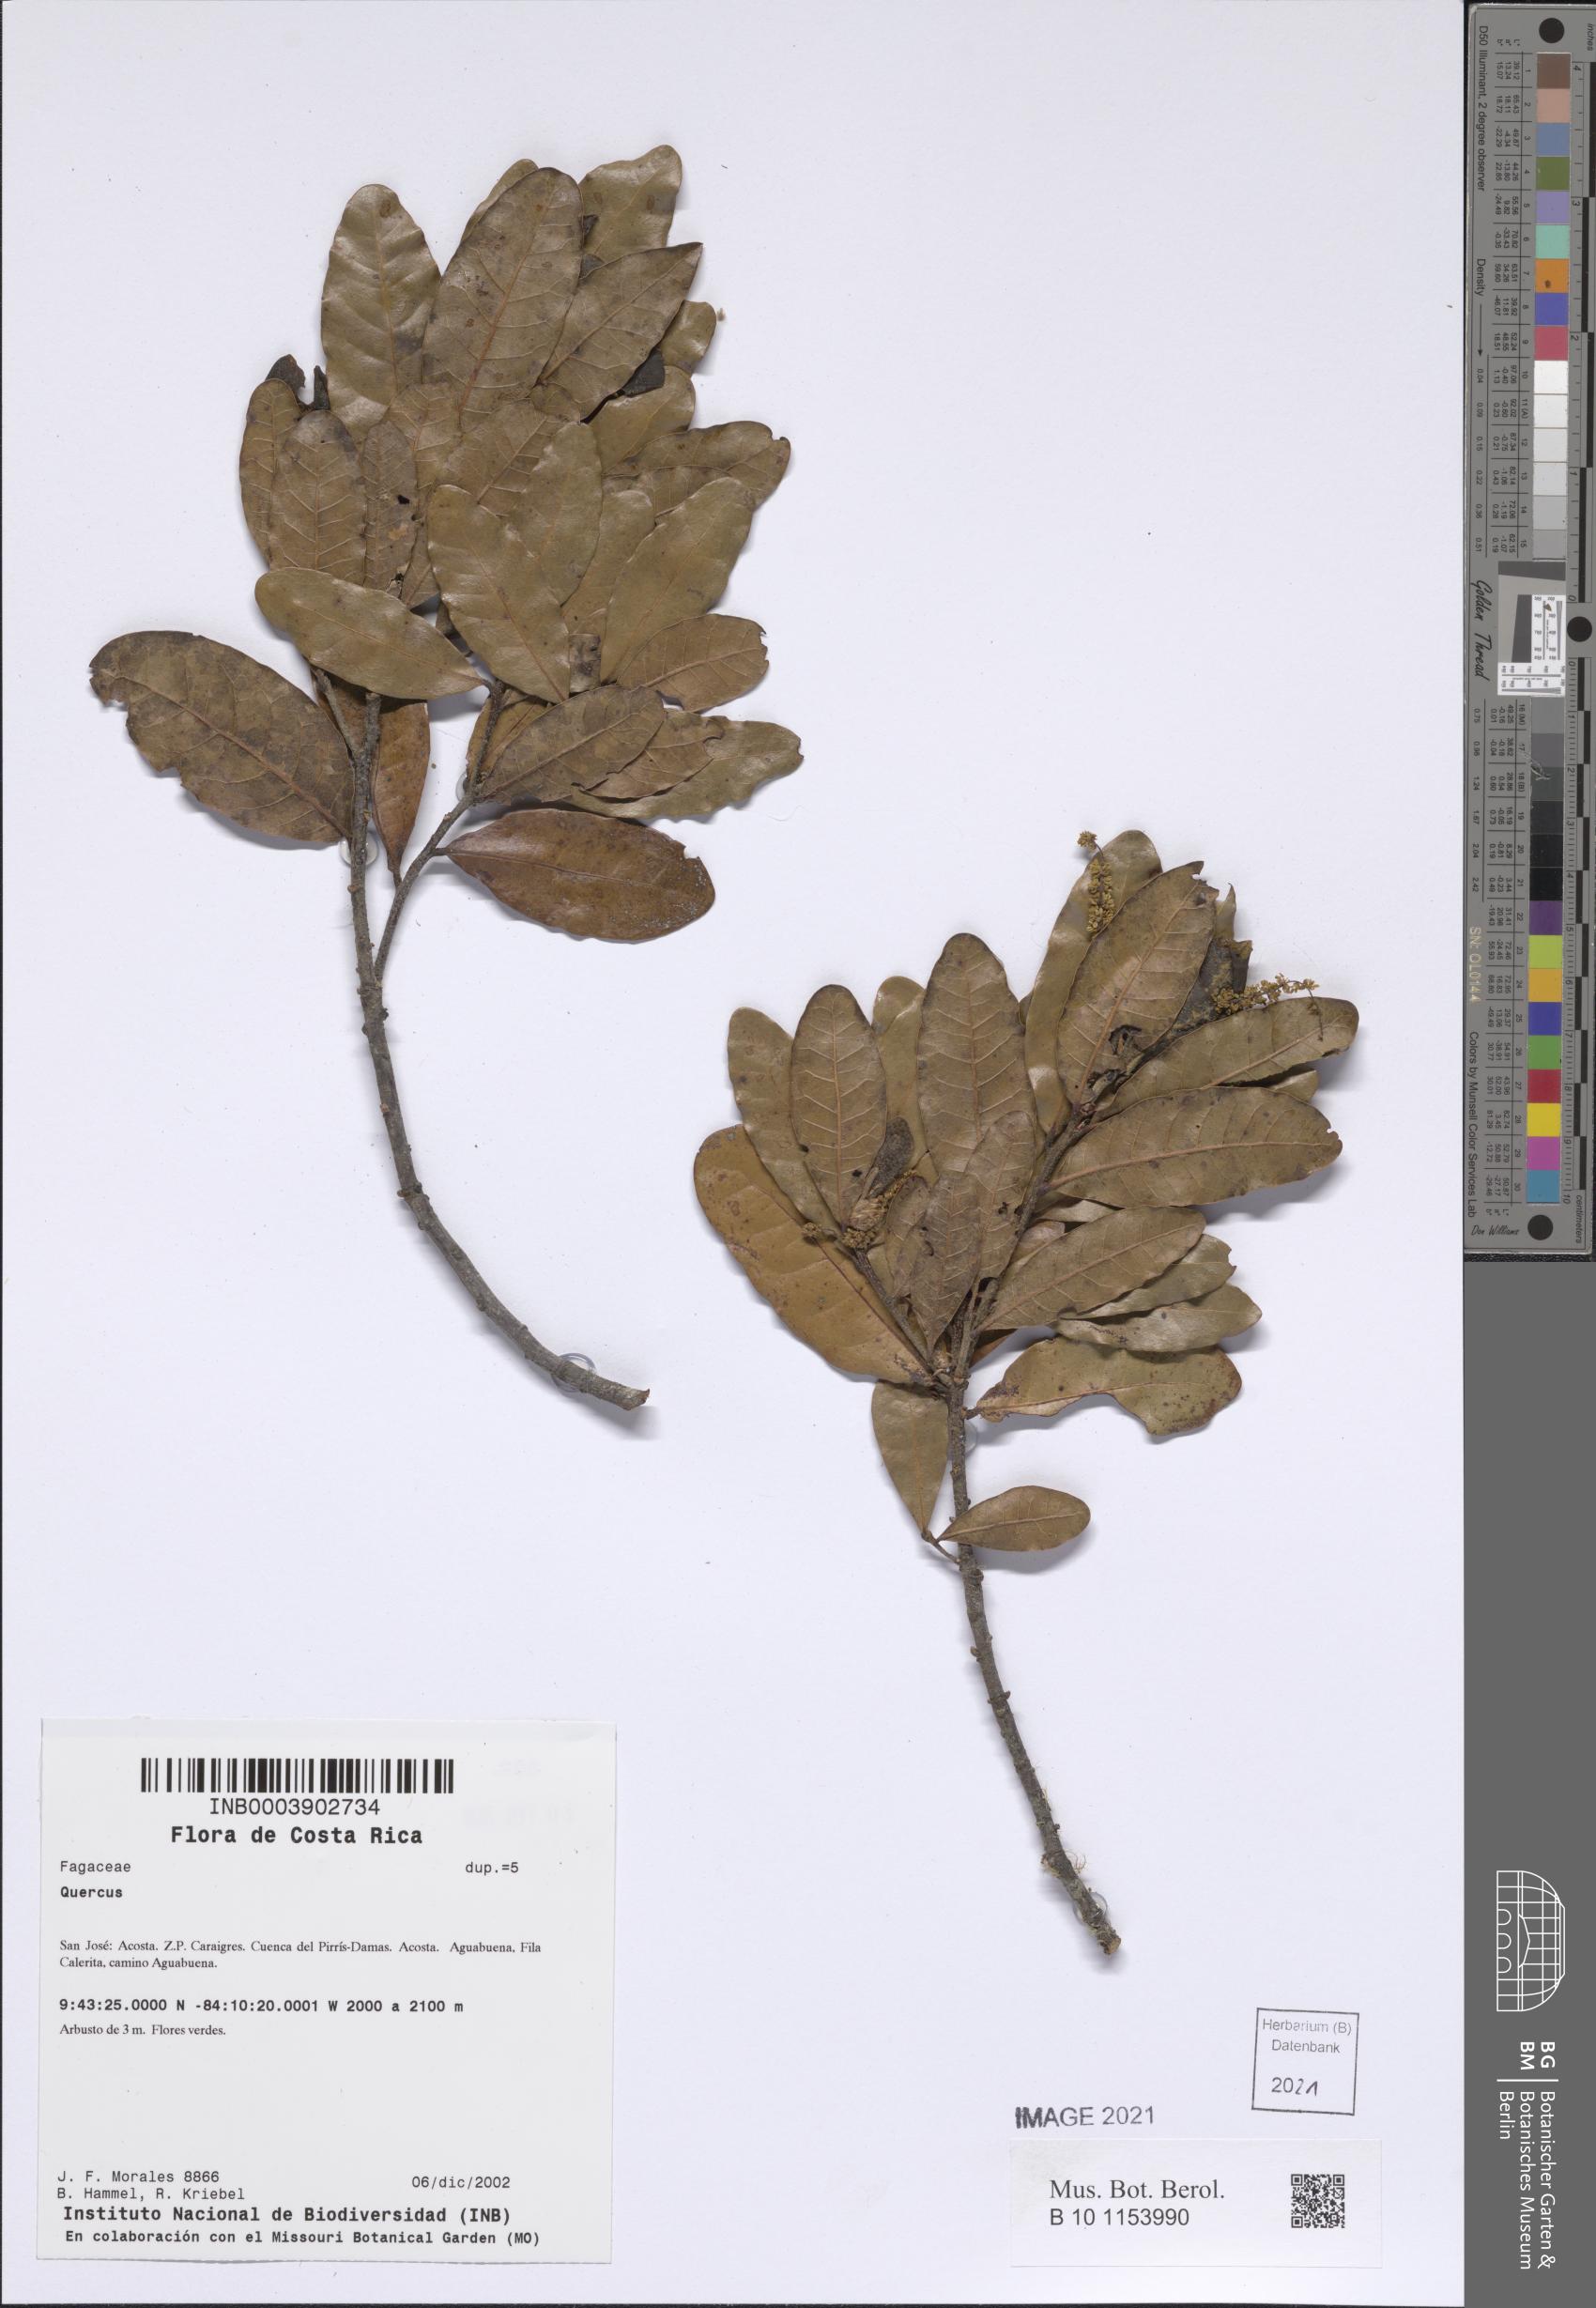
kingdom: Plantae
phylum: Tracheophyta
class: Magnoliopsida
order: Fagales
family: Fagaceae
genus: Quercus
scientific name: Quercus sapotifolia
